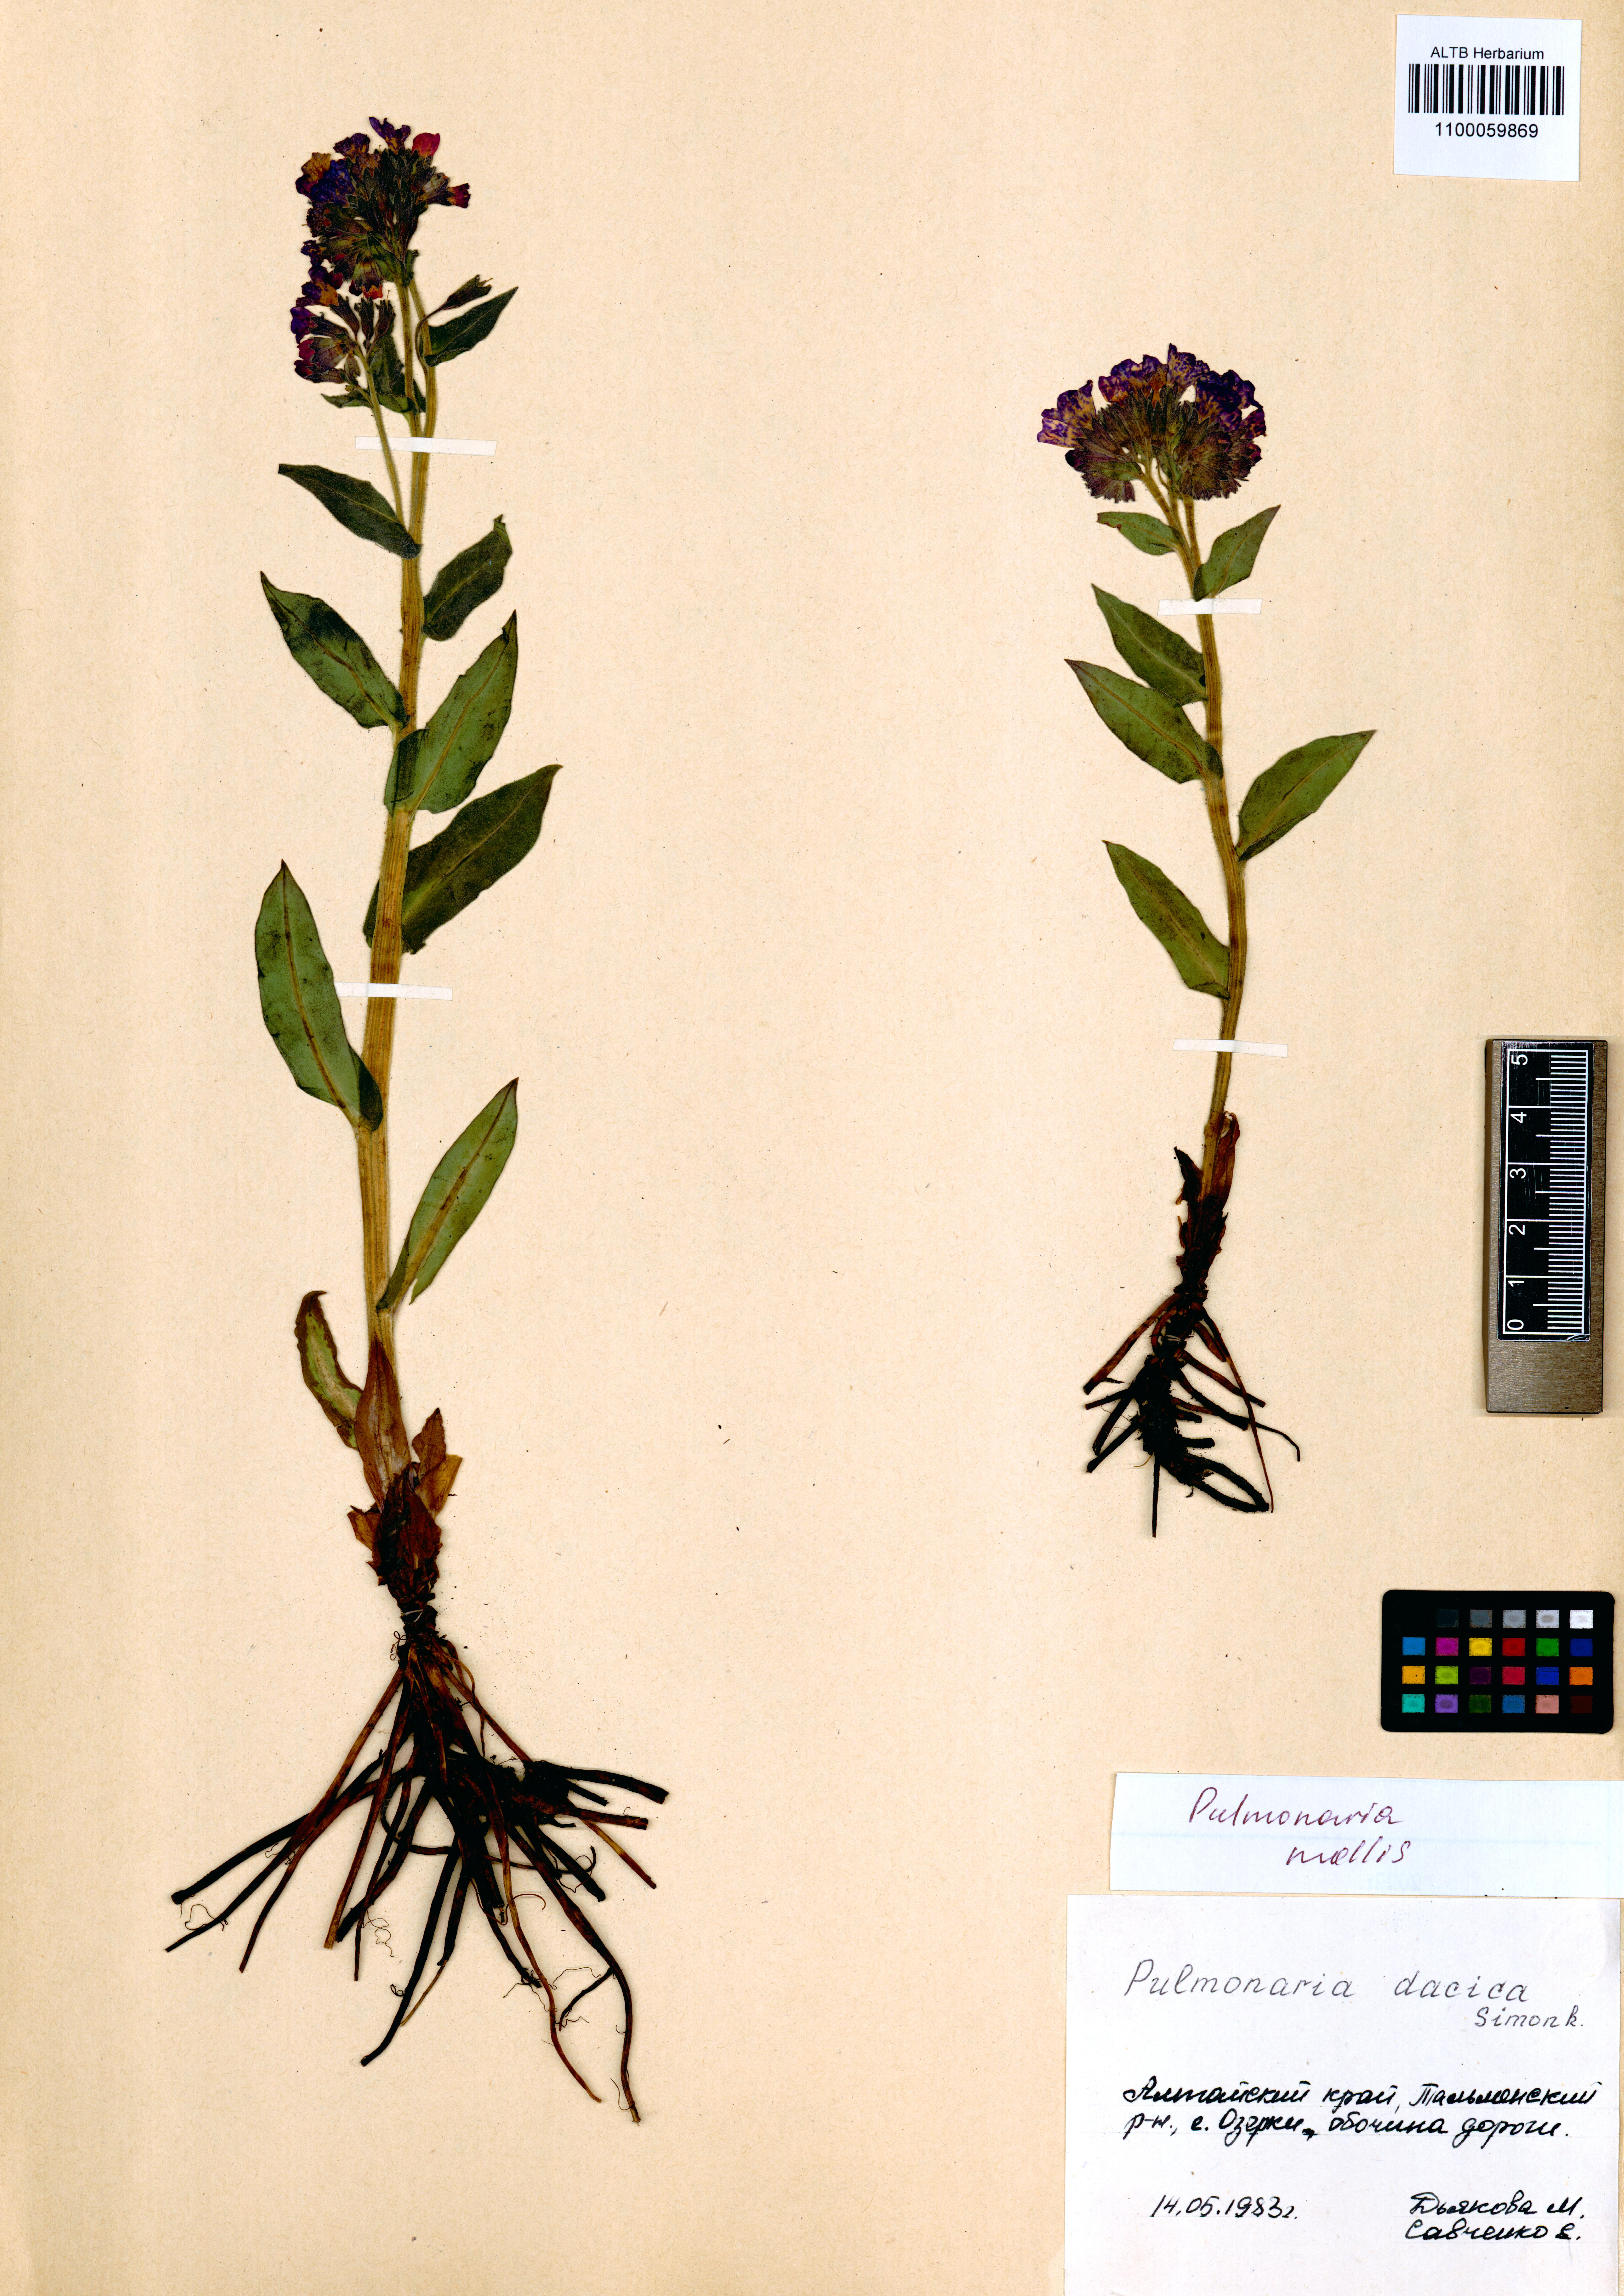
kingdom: Plantae
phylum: Tracheophyta
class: Magnoliopsida
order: Boraginales
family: Boraginaceae
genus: Pulmonaria
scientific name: Pulmonaria mollis
